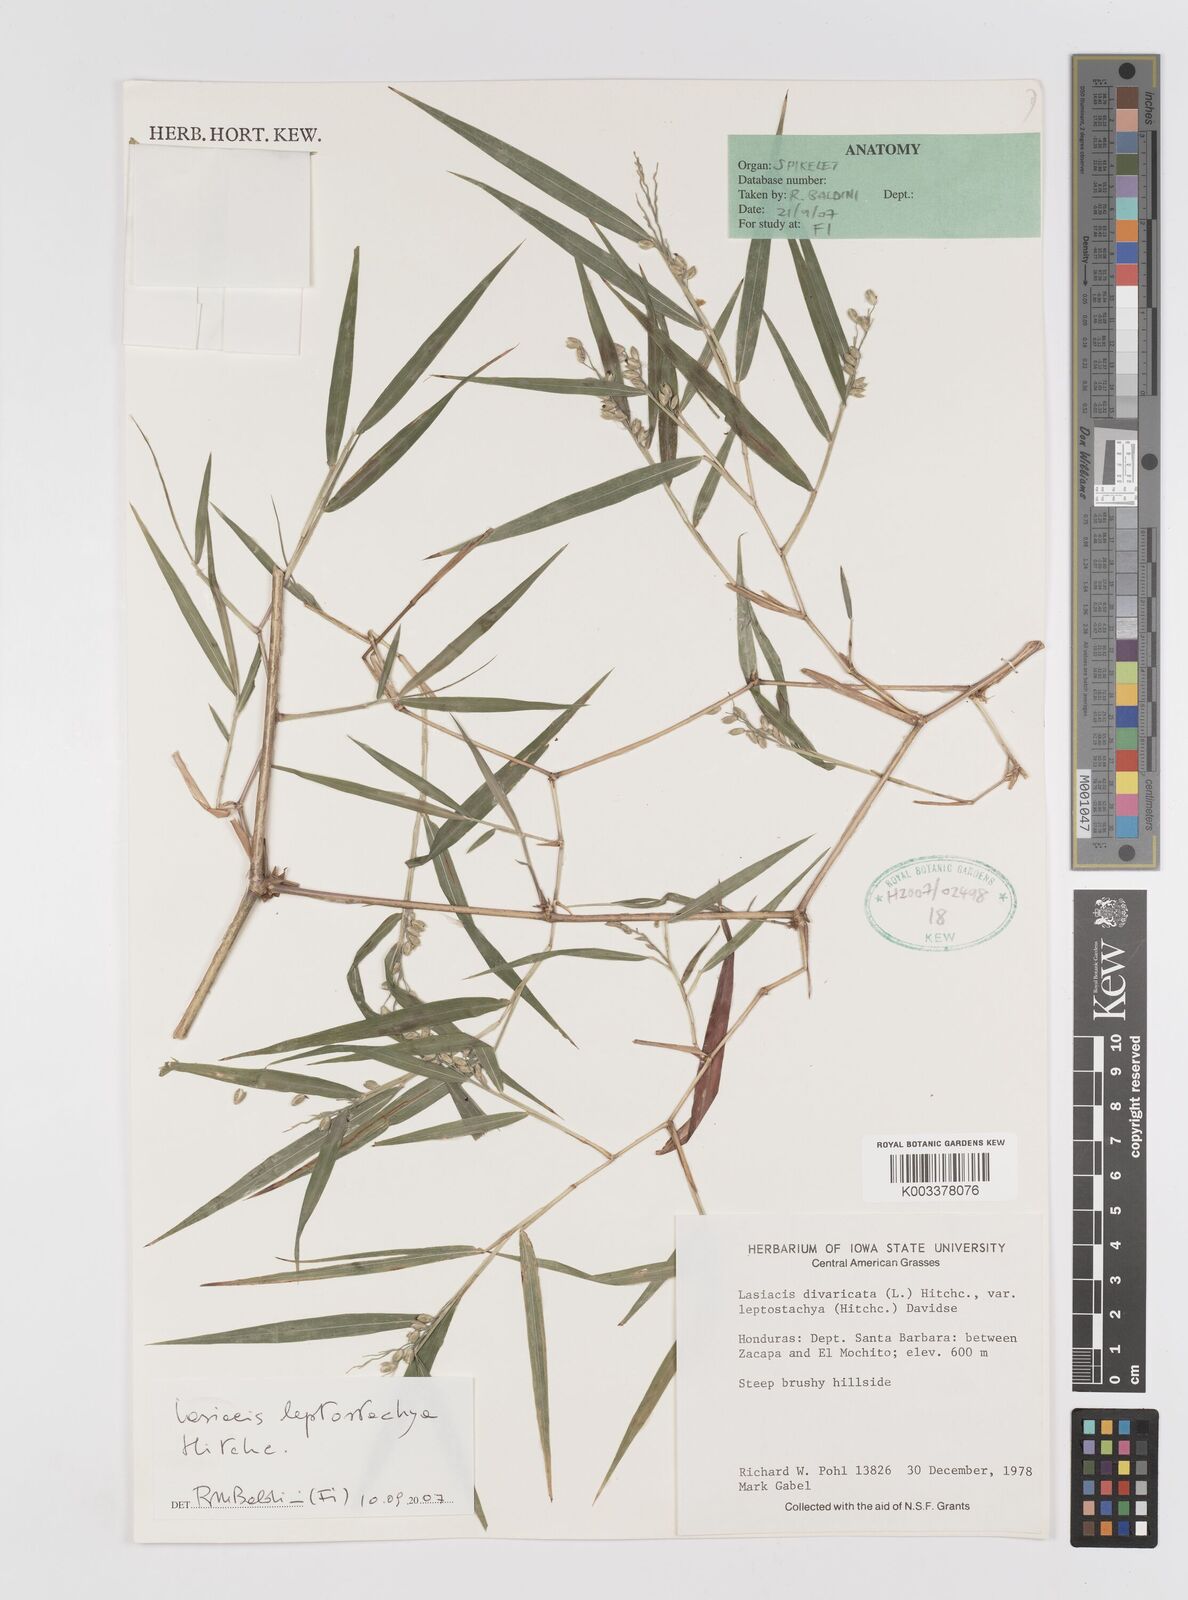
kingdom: Plantae
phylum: Tracheophyta
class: Liliopsida
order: Poales
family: Poaceae
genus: Lasiacis
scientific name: Lasiacis divaricata
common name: Smallcane
